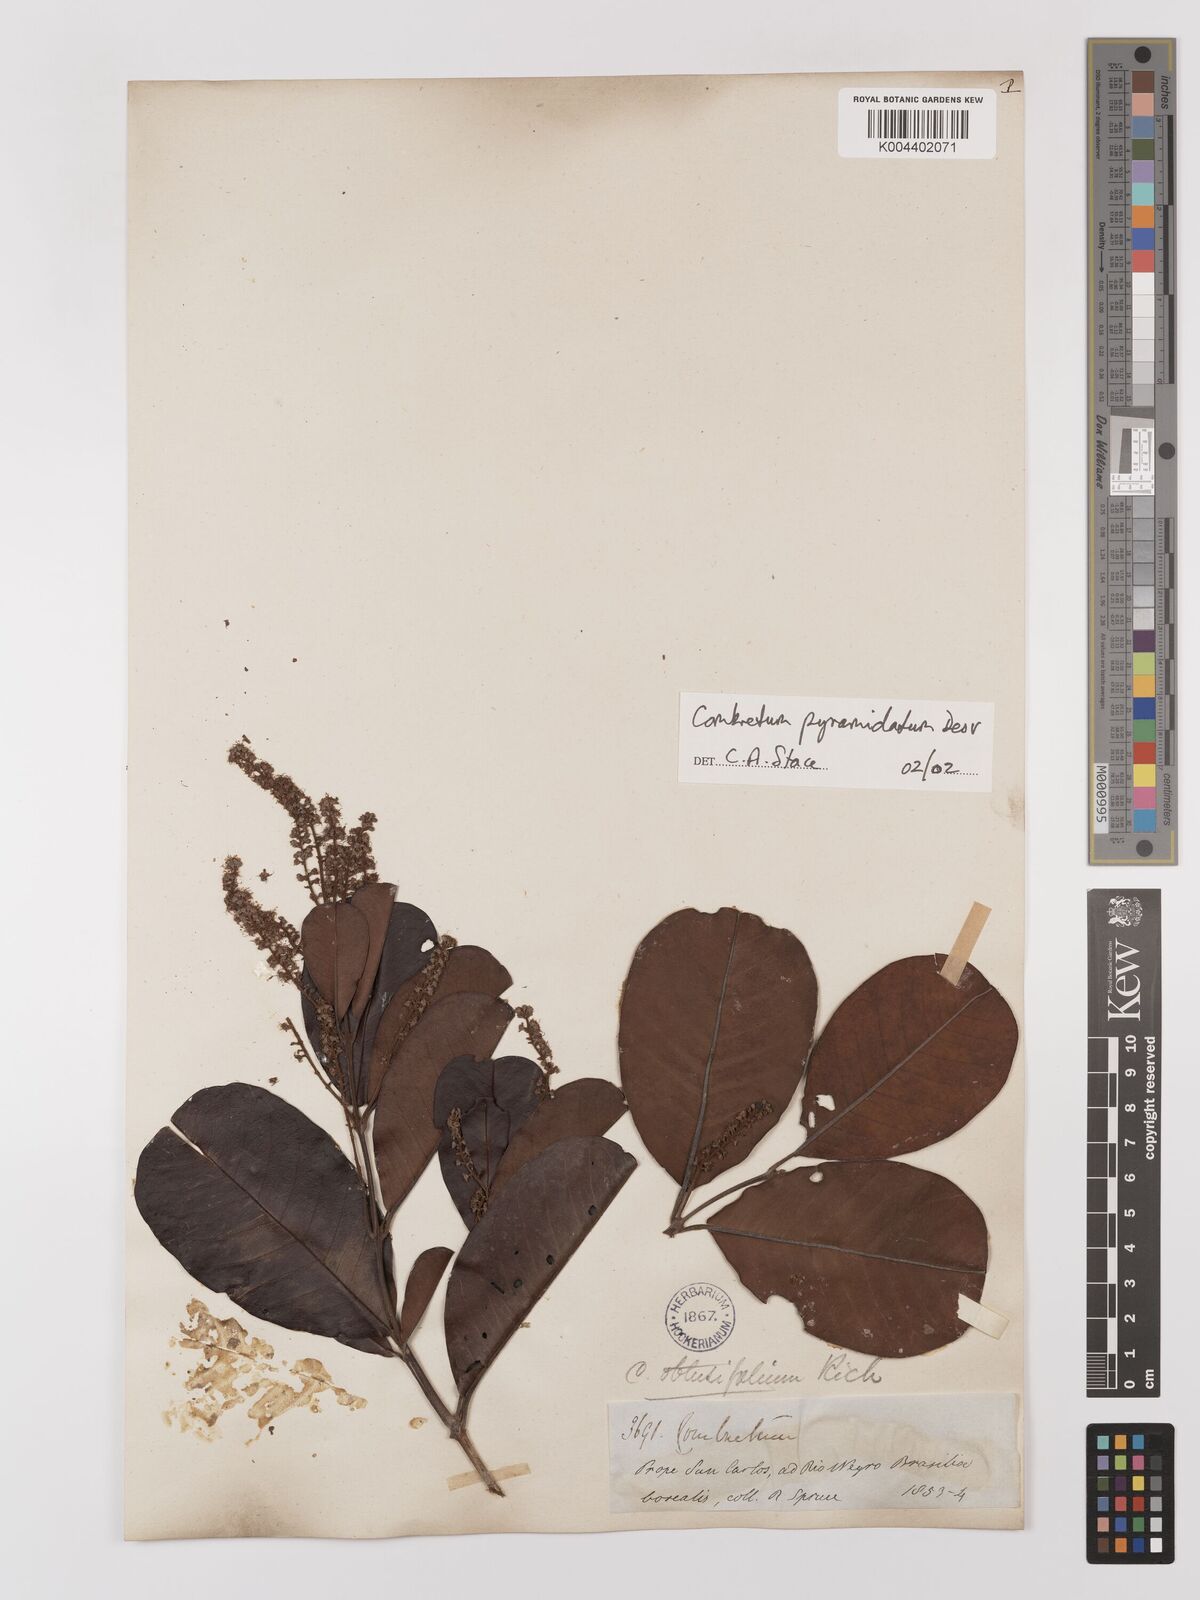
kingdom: Plantae
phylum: Tracheophyta
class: Magnoliopsida
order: Myrtales
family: Combretaceae
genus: Combretum
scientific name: Combretum pyramidatum
